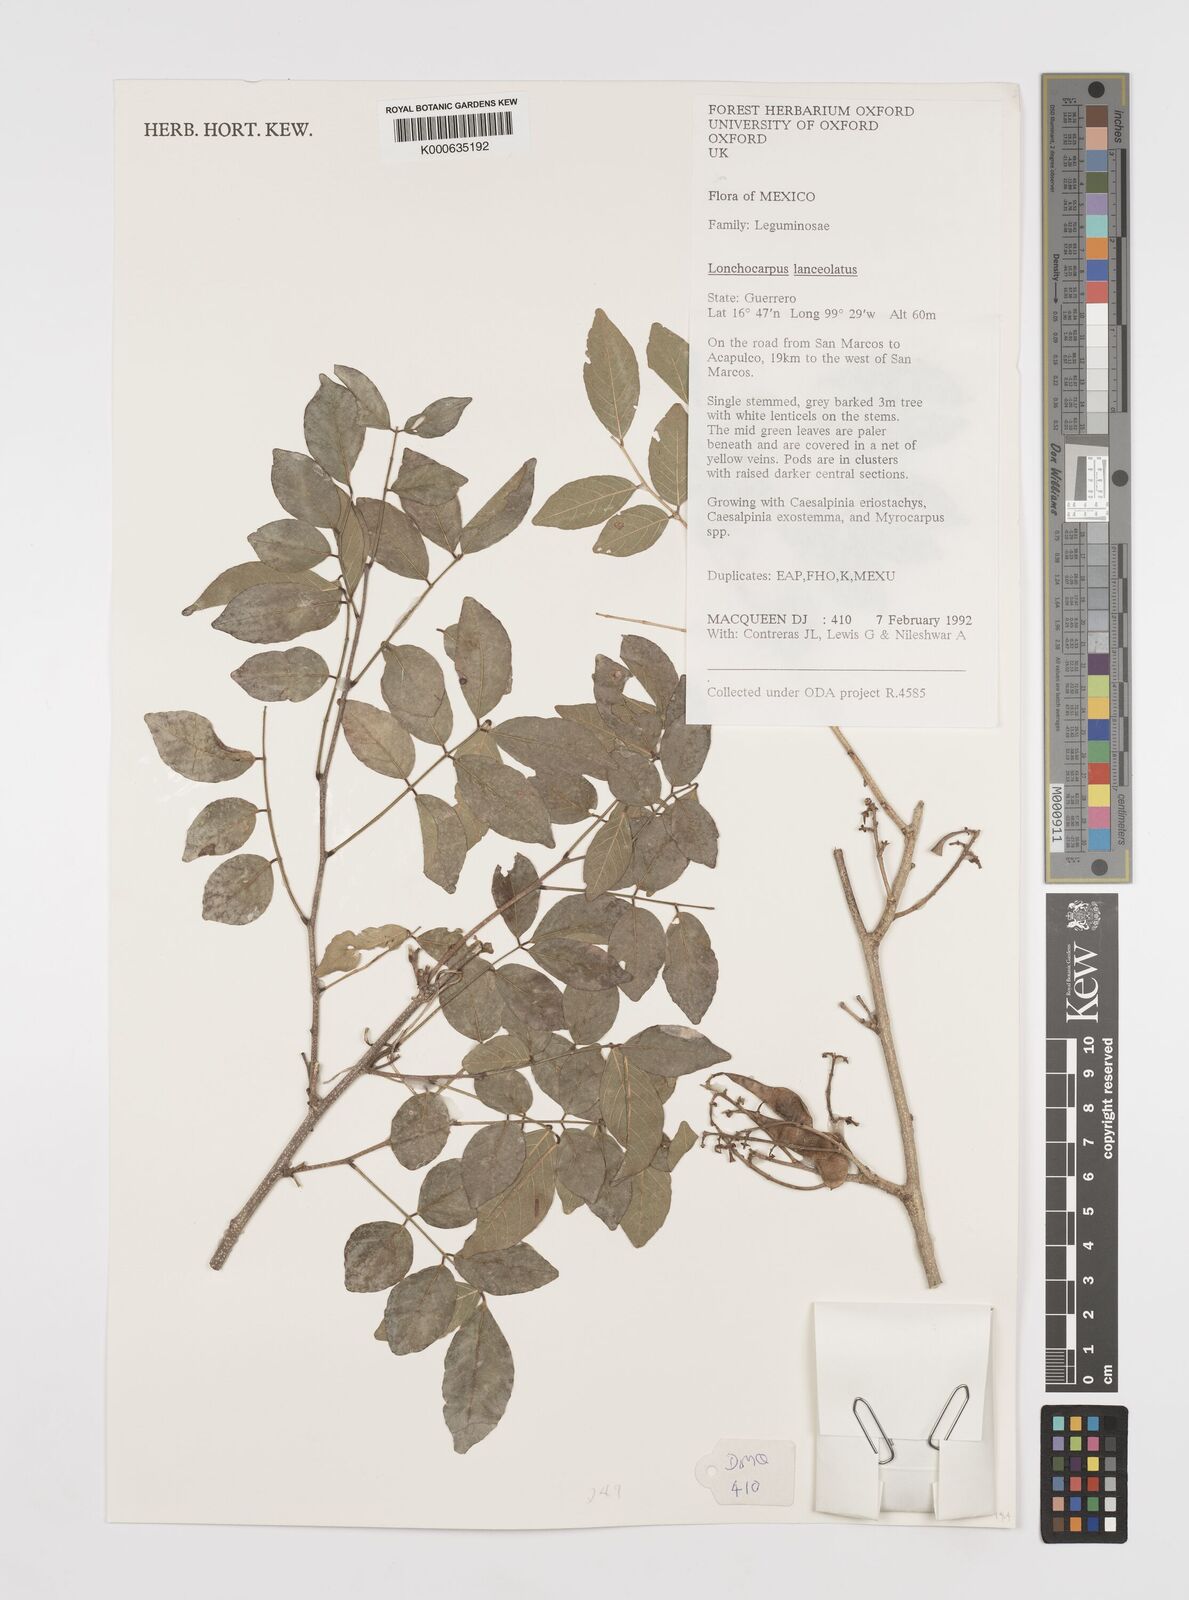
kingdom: Plantae
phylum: Tracheophyta
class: Magnoliopsida
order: Fabales
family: Fabaceae
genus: Lonchocarpus
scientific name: Lonchocarpus lanceolatus
